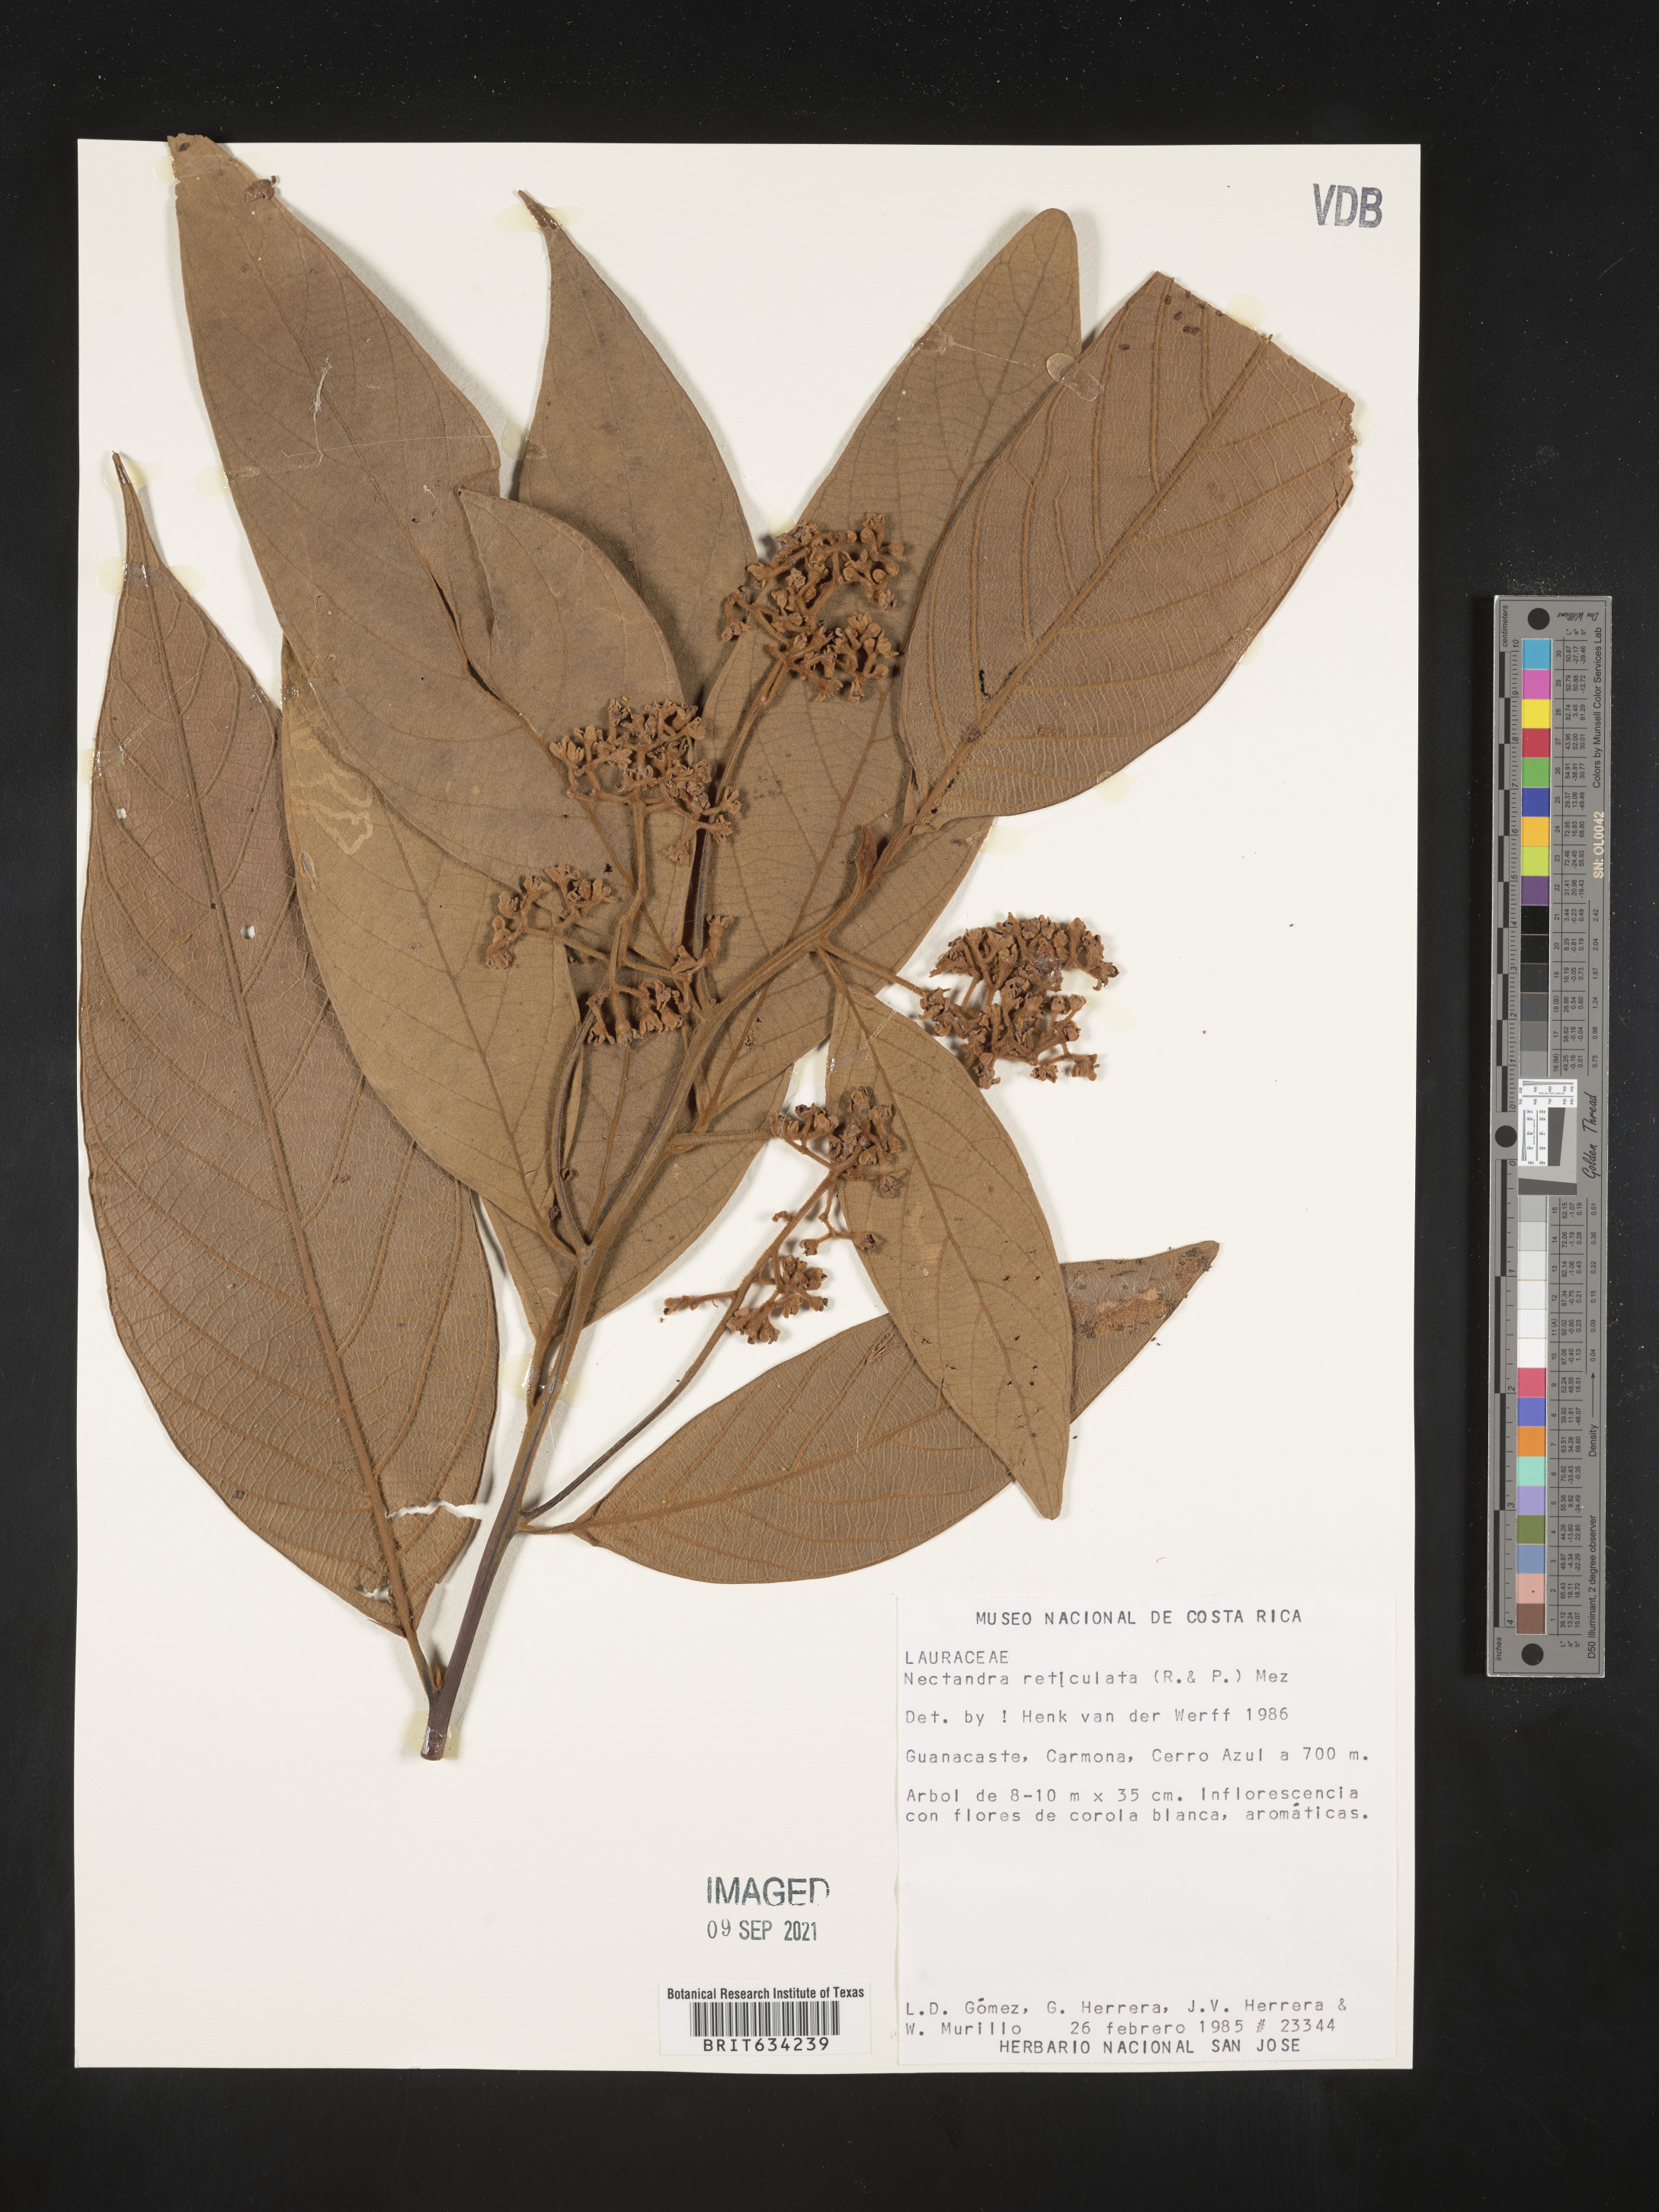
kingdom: Plantae
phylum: Tracheophyta
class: Magnoliopsida
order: Laurales
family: Lauraceae
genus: Nectandra
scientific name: Nectandra
